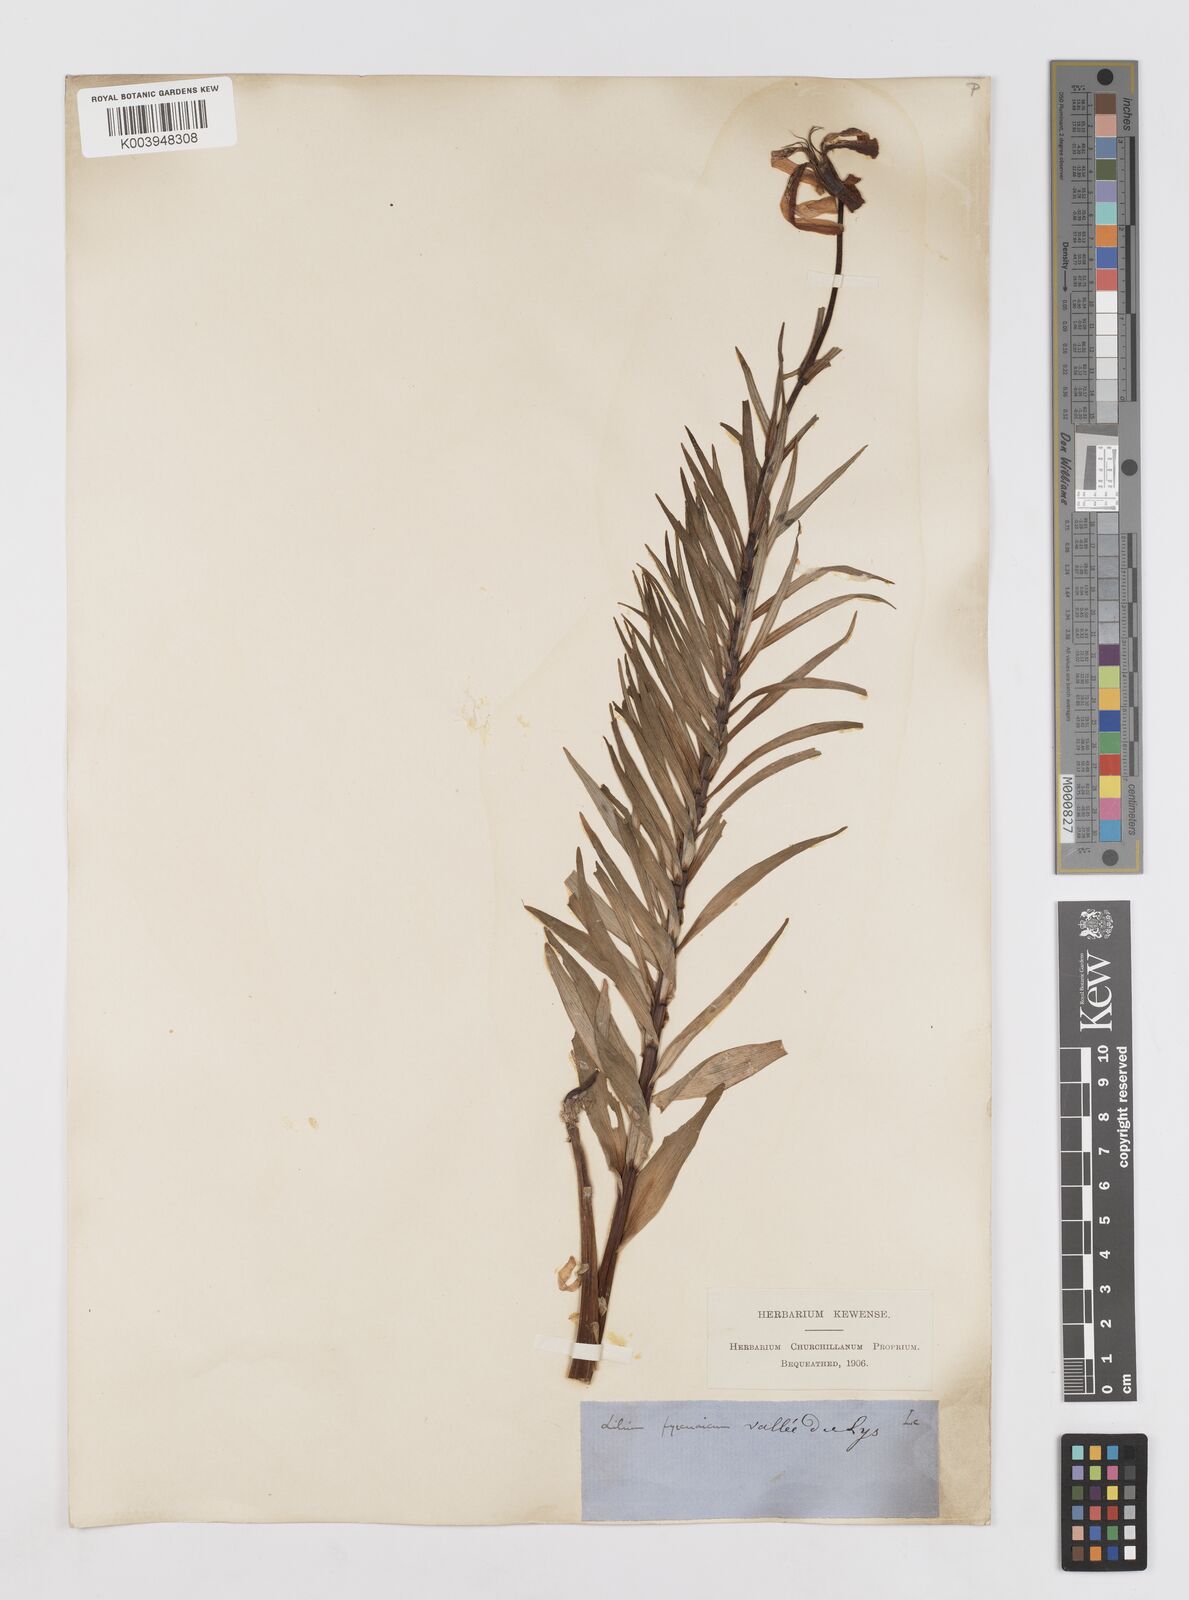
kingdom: Plantae
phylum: Tracheophyta
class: Liliopsida
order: Liliales
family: Liliaceae
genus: Lilium
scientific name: Lilium pyrenaicum
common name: Pyrenean lily
